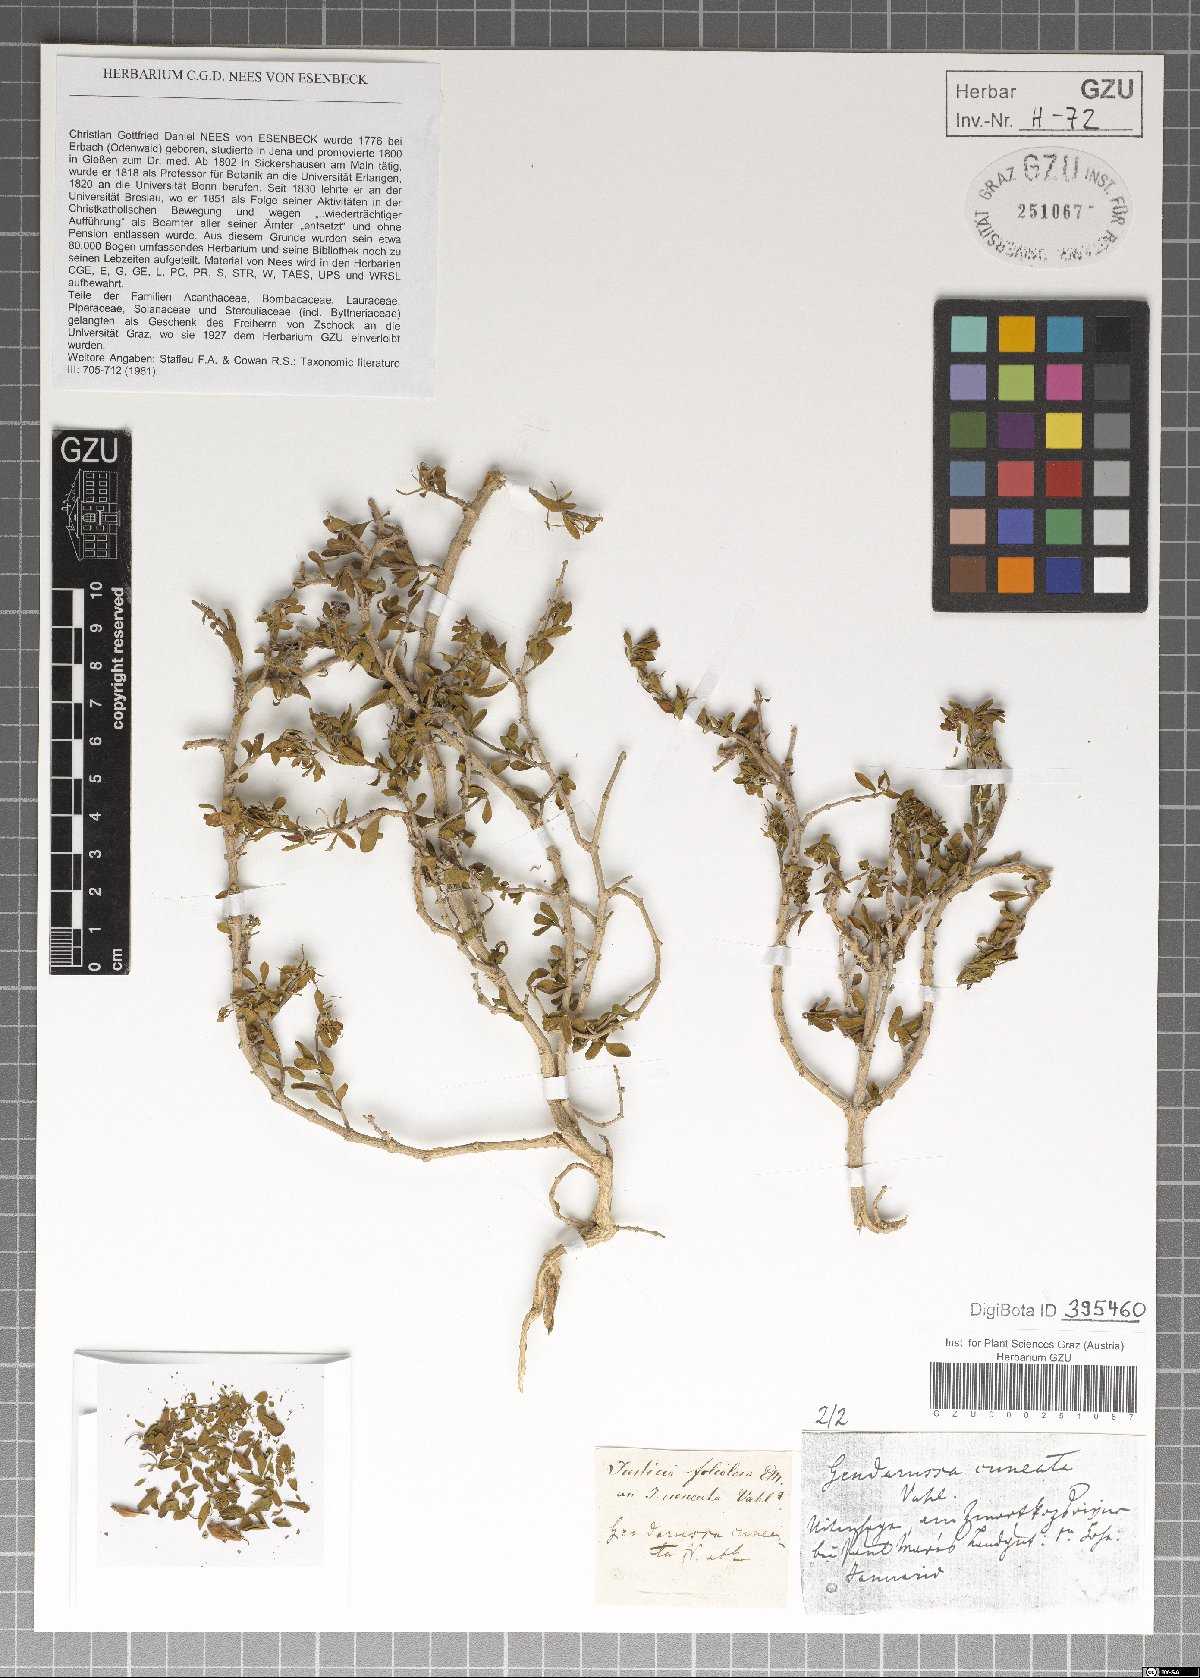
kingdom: Plantae
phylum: Tracheophyta
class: Magnoliopsida
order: Lamiales
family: Acanthaceae
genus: Justicia
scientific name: Justicia cuneata
